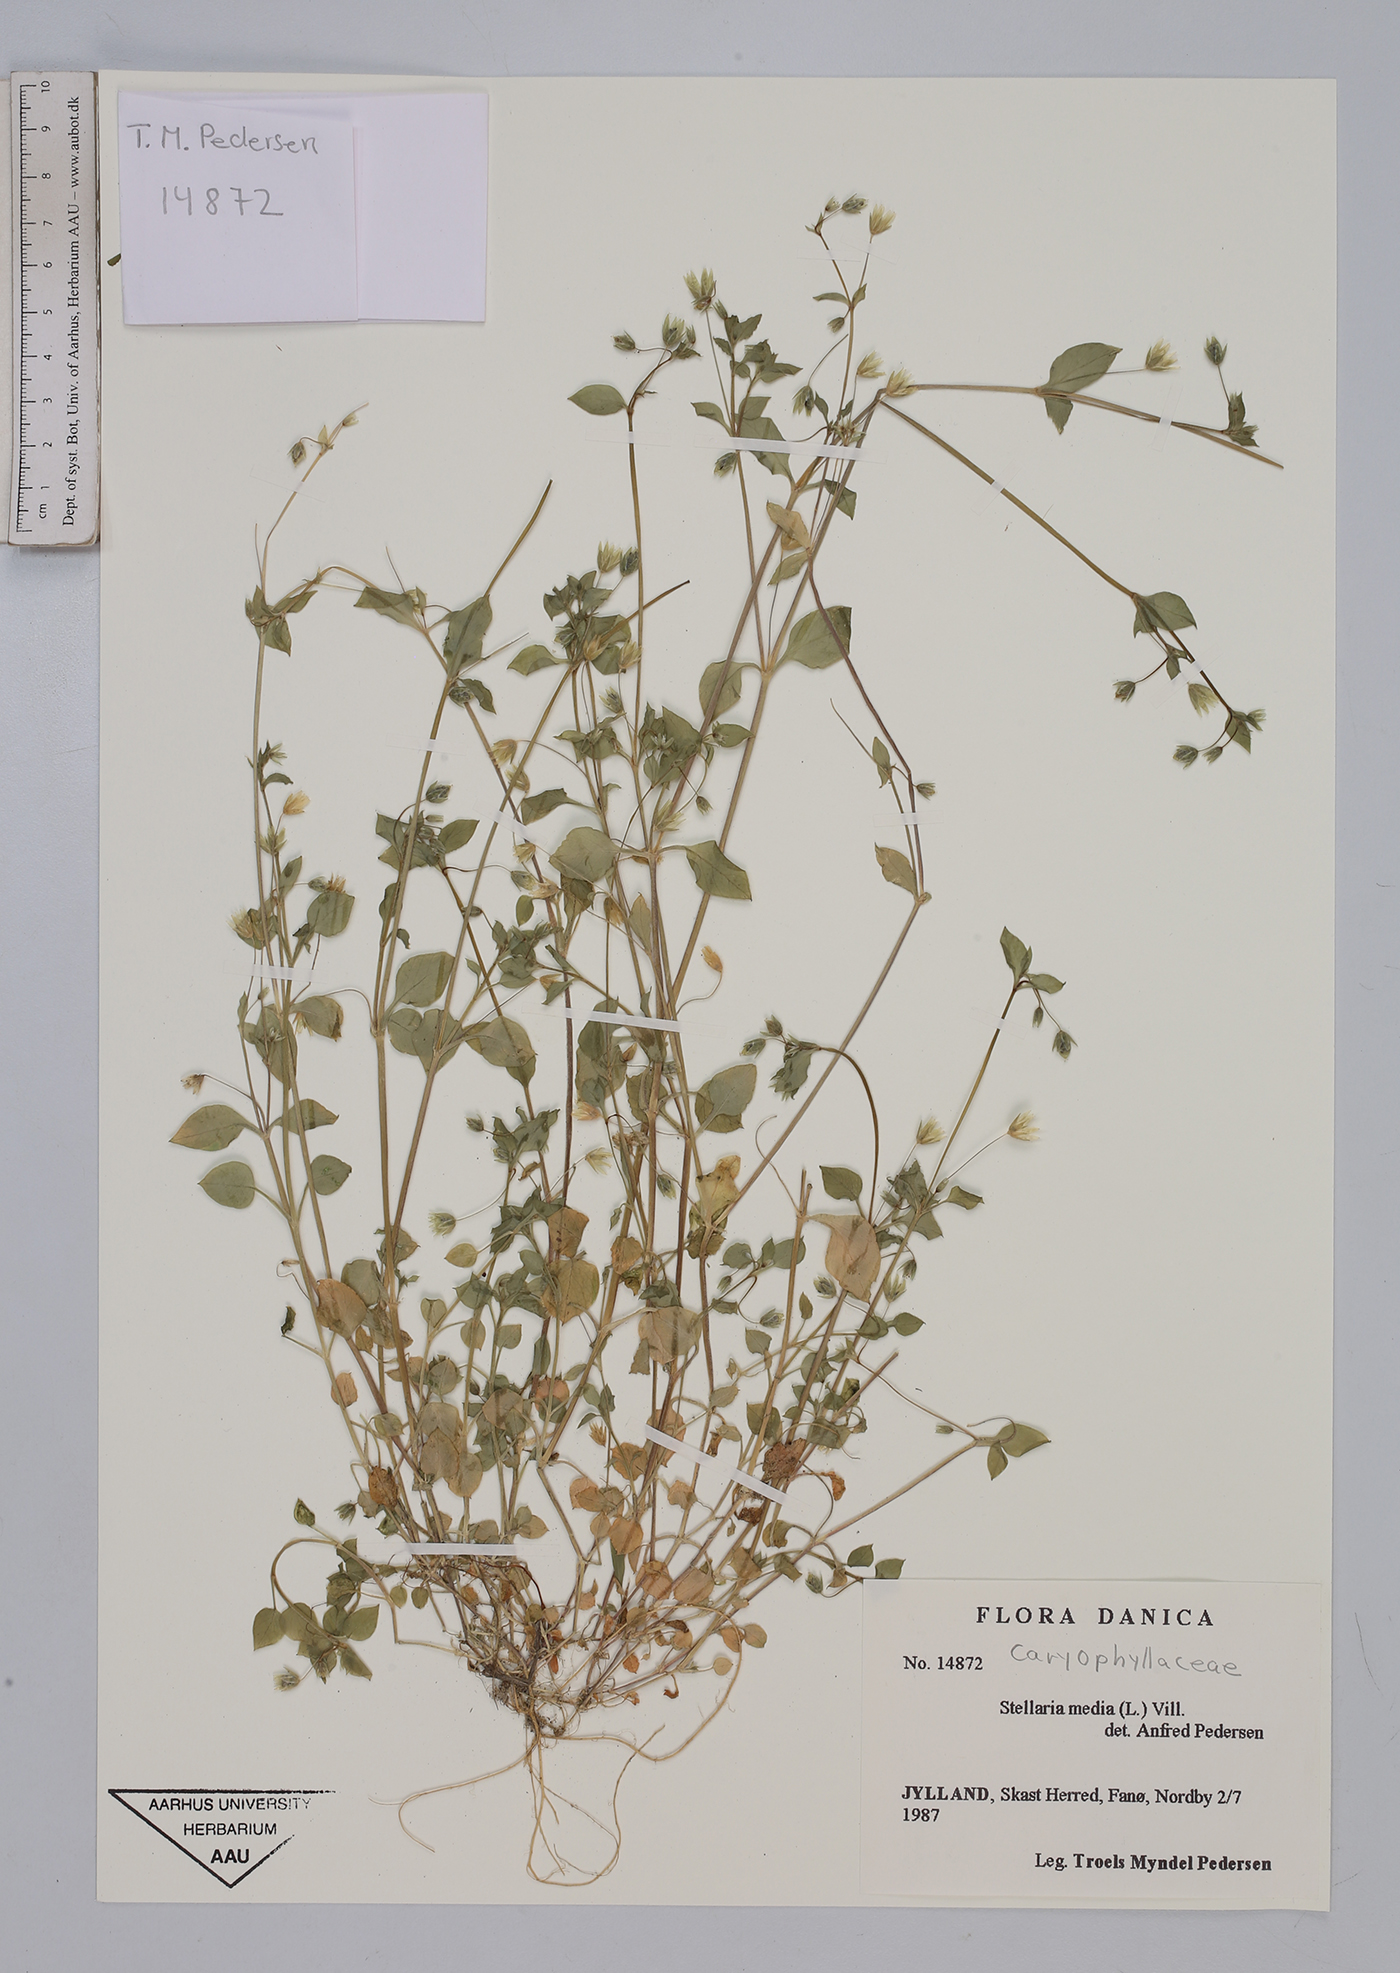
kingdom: Plantae
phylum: Tracheophyta
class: Magnoliopsida
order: Caryophyllales
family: Caryophyllaceae
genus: Stellaria
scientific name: Stellaria media
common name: Common chickweed
